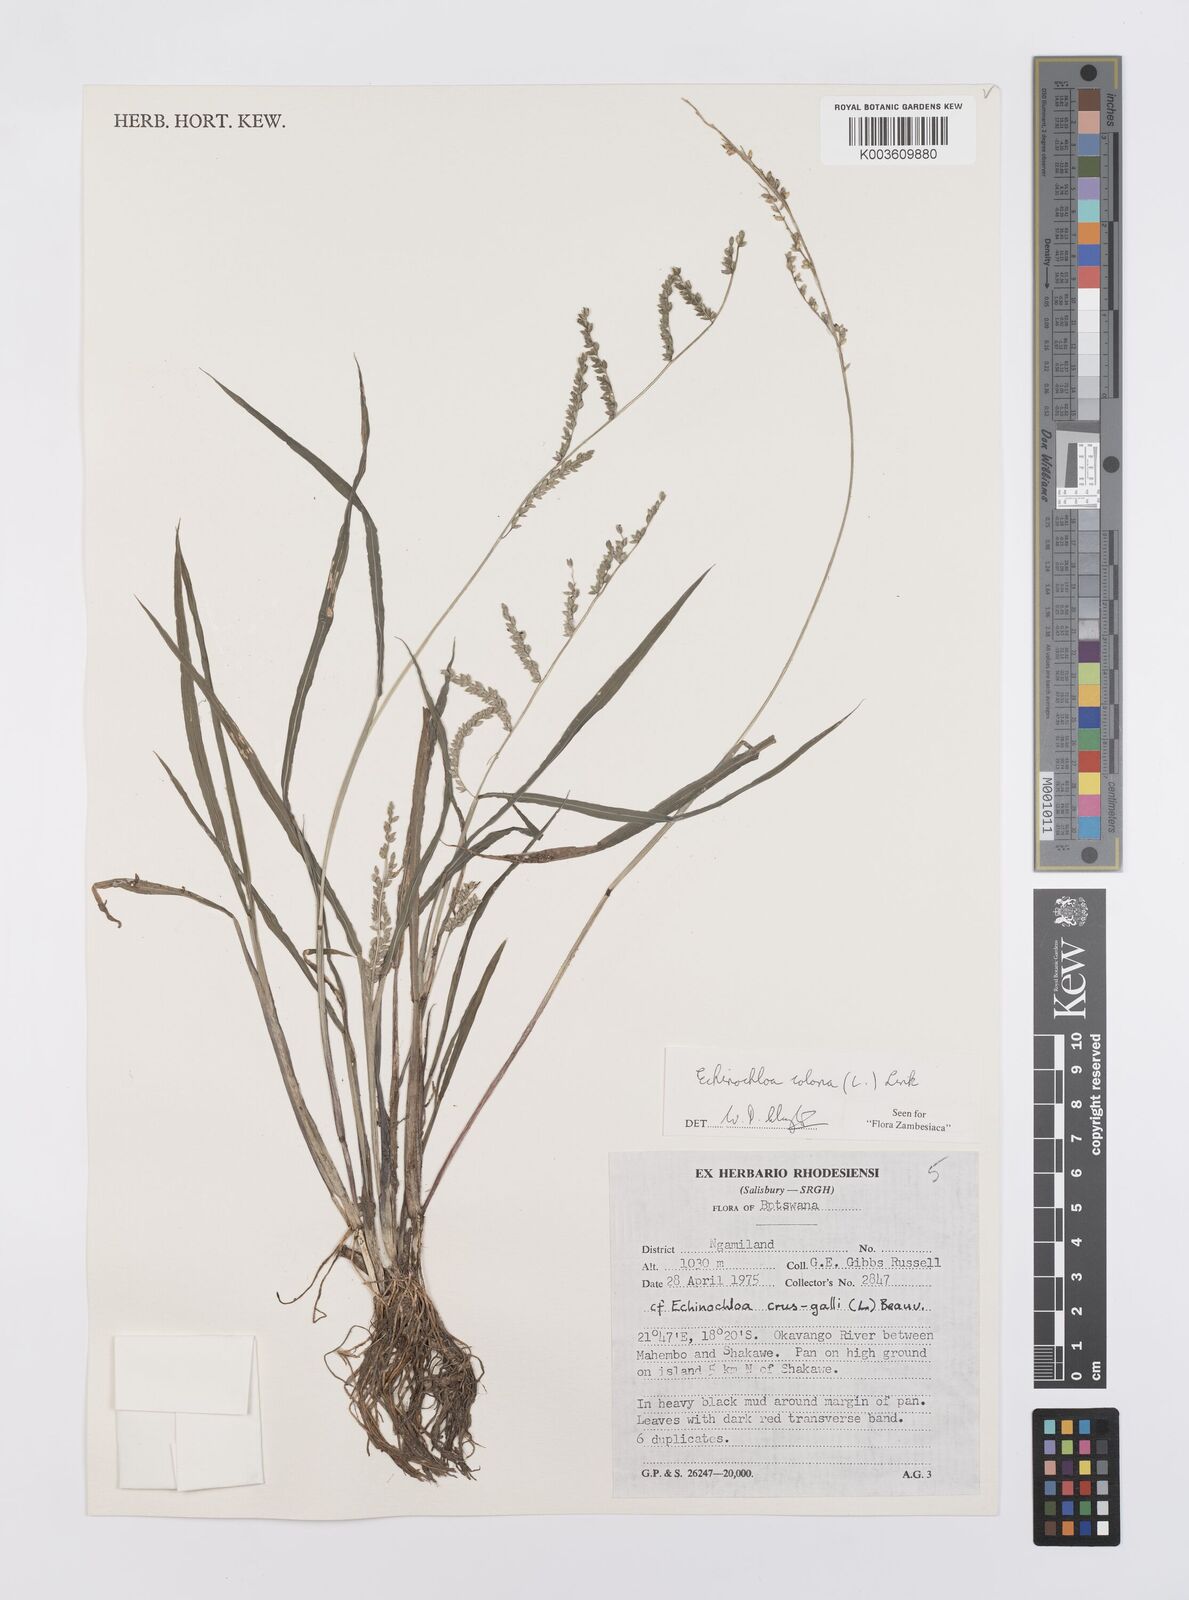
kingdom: Plantae
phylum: Tracheophyta
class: Liliopsida
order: Poales
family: Poaceae
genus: Echinochloa
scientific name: Echinochloa colonum
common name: Jungle rice
